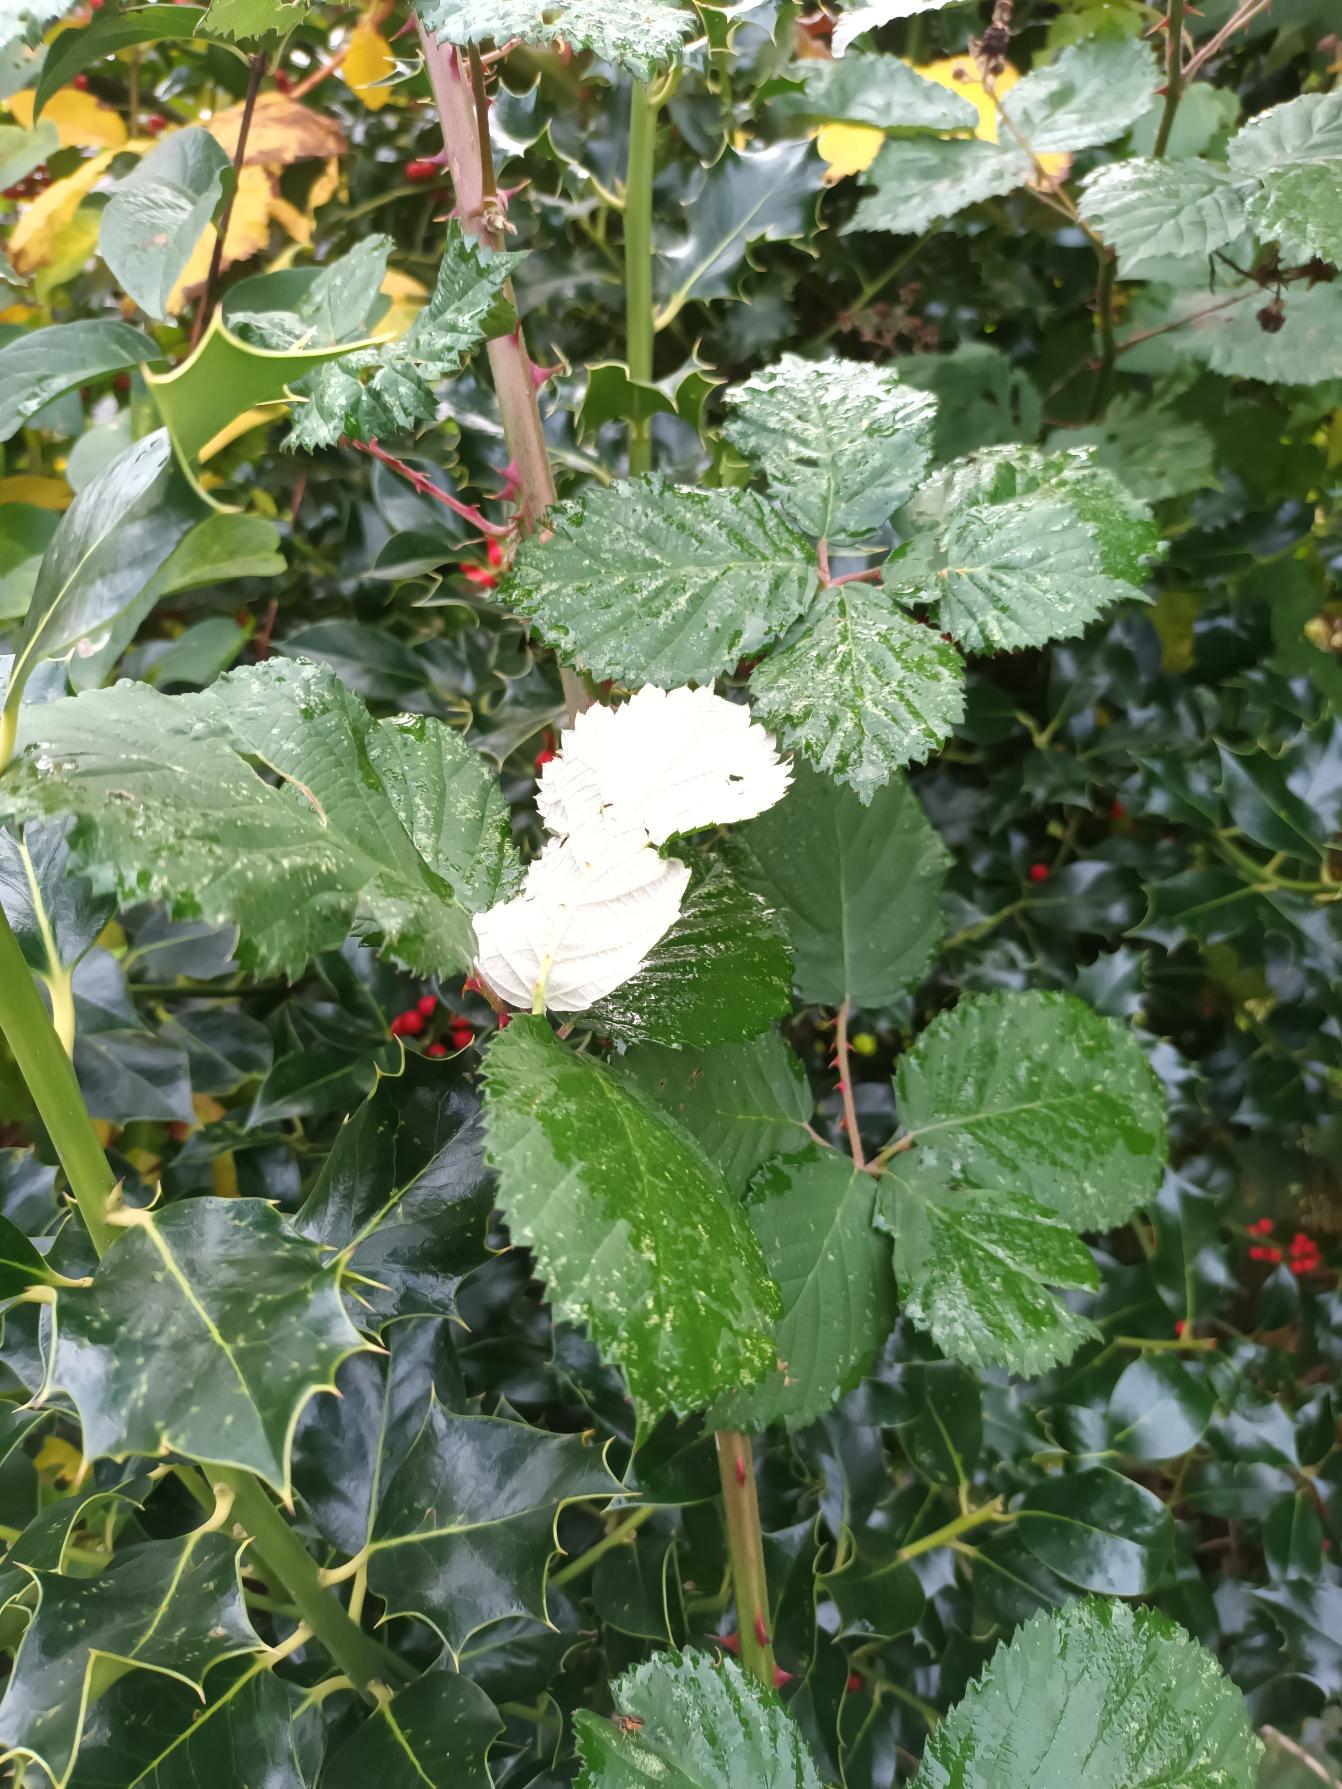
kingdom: Plantae
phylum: Tracheophyta
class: Magnoliopsida
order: Rosales
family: Rosaceae
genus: Rubus
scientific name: Rubus armeniacus
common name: Armensk brombær
